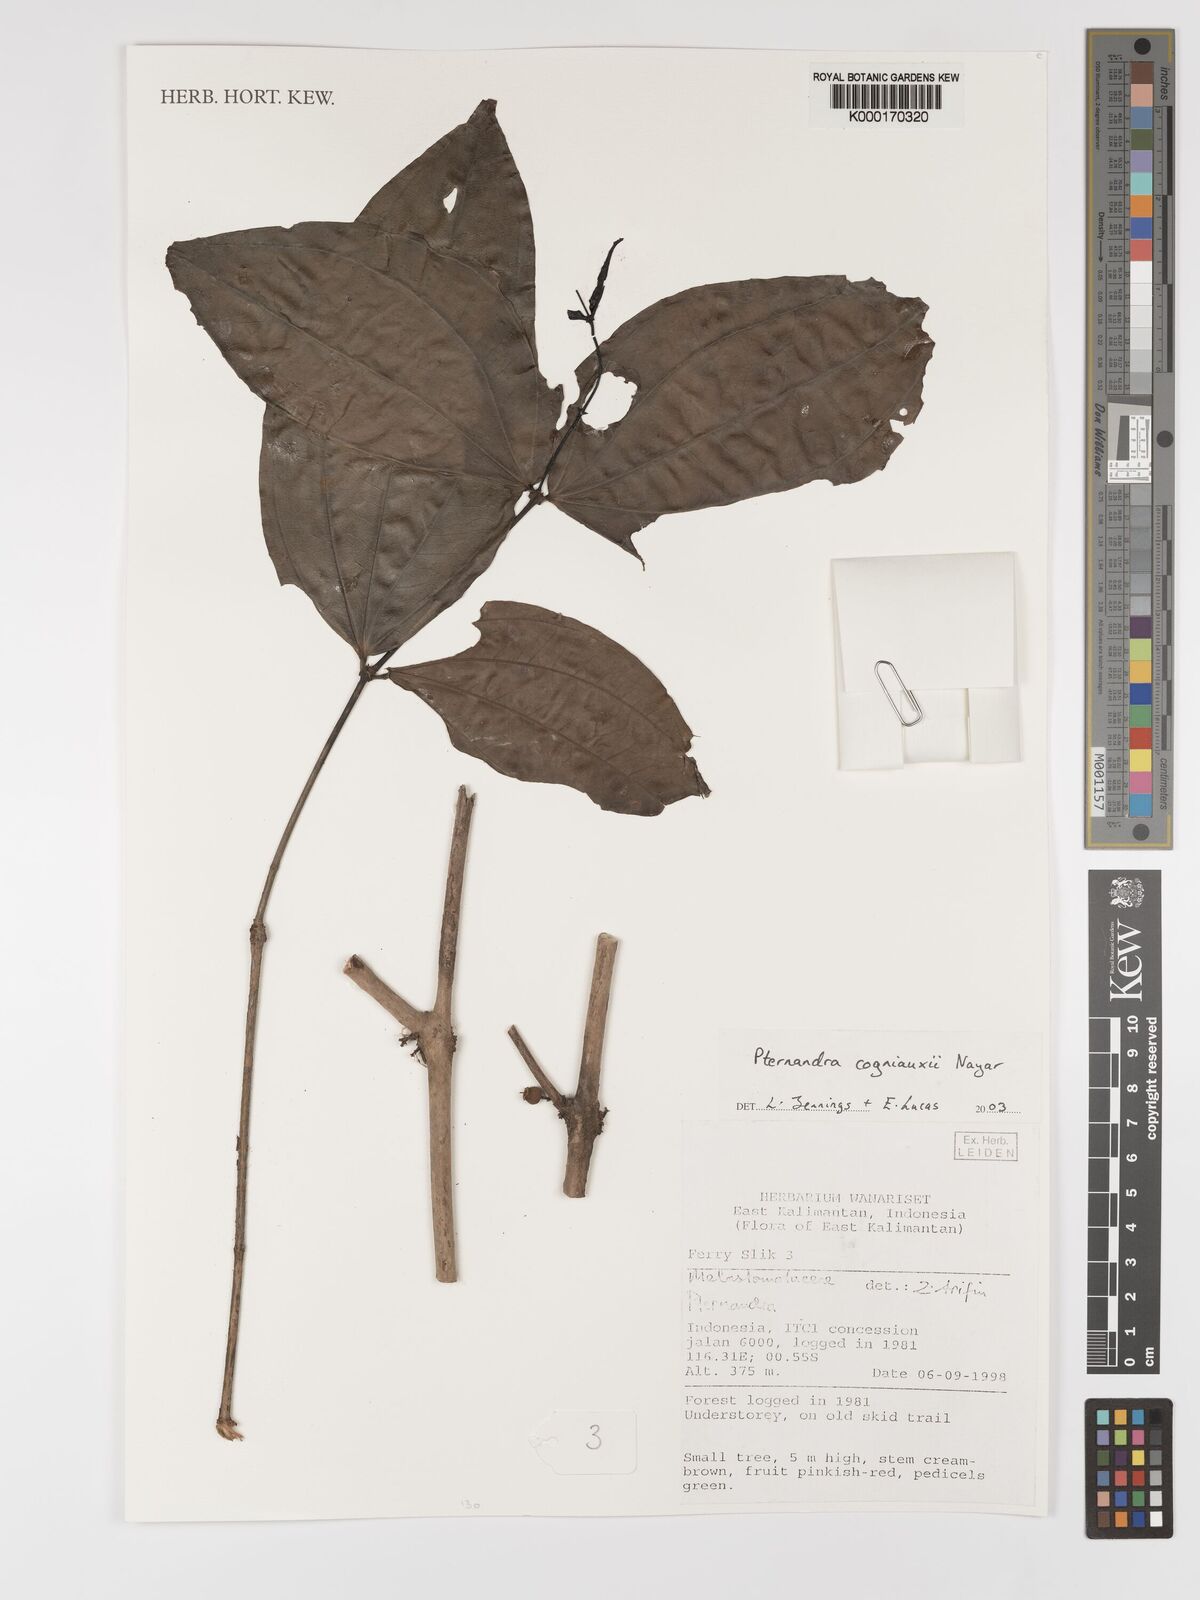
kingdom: Plantae
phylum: Tracheophyta
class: Magnoliopsida
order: Myrtales
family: Melastomataceae
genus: Pternandra
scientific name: Pternandra cogniauxii
